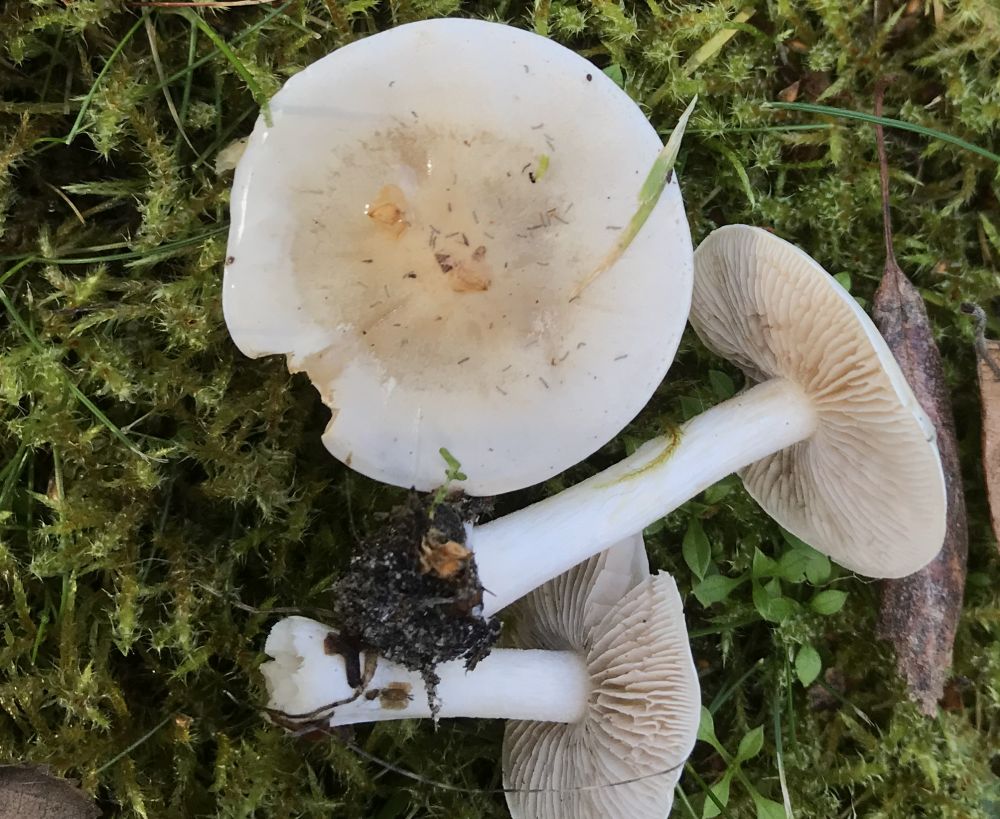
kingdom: Fungi
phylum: Basidiomycota
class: Agaricomycetes
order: Agaricales
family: Hymenogastraceae
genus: Hebeloma
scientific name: Hebeloma
